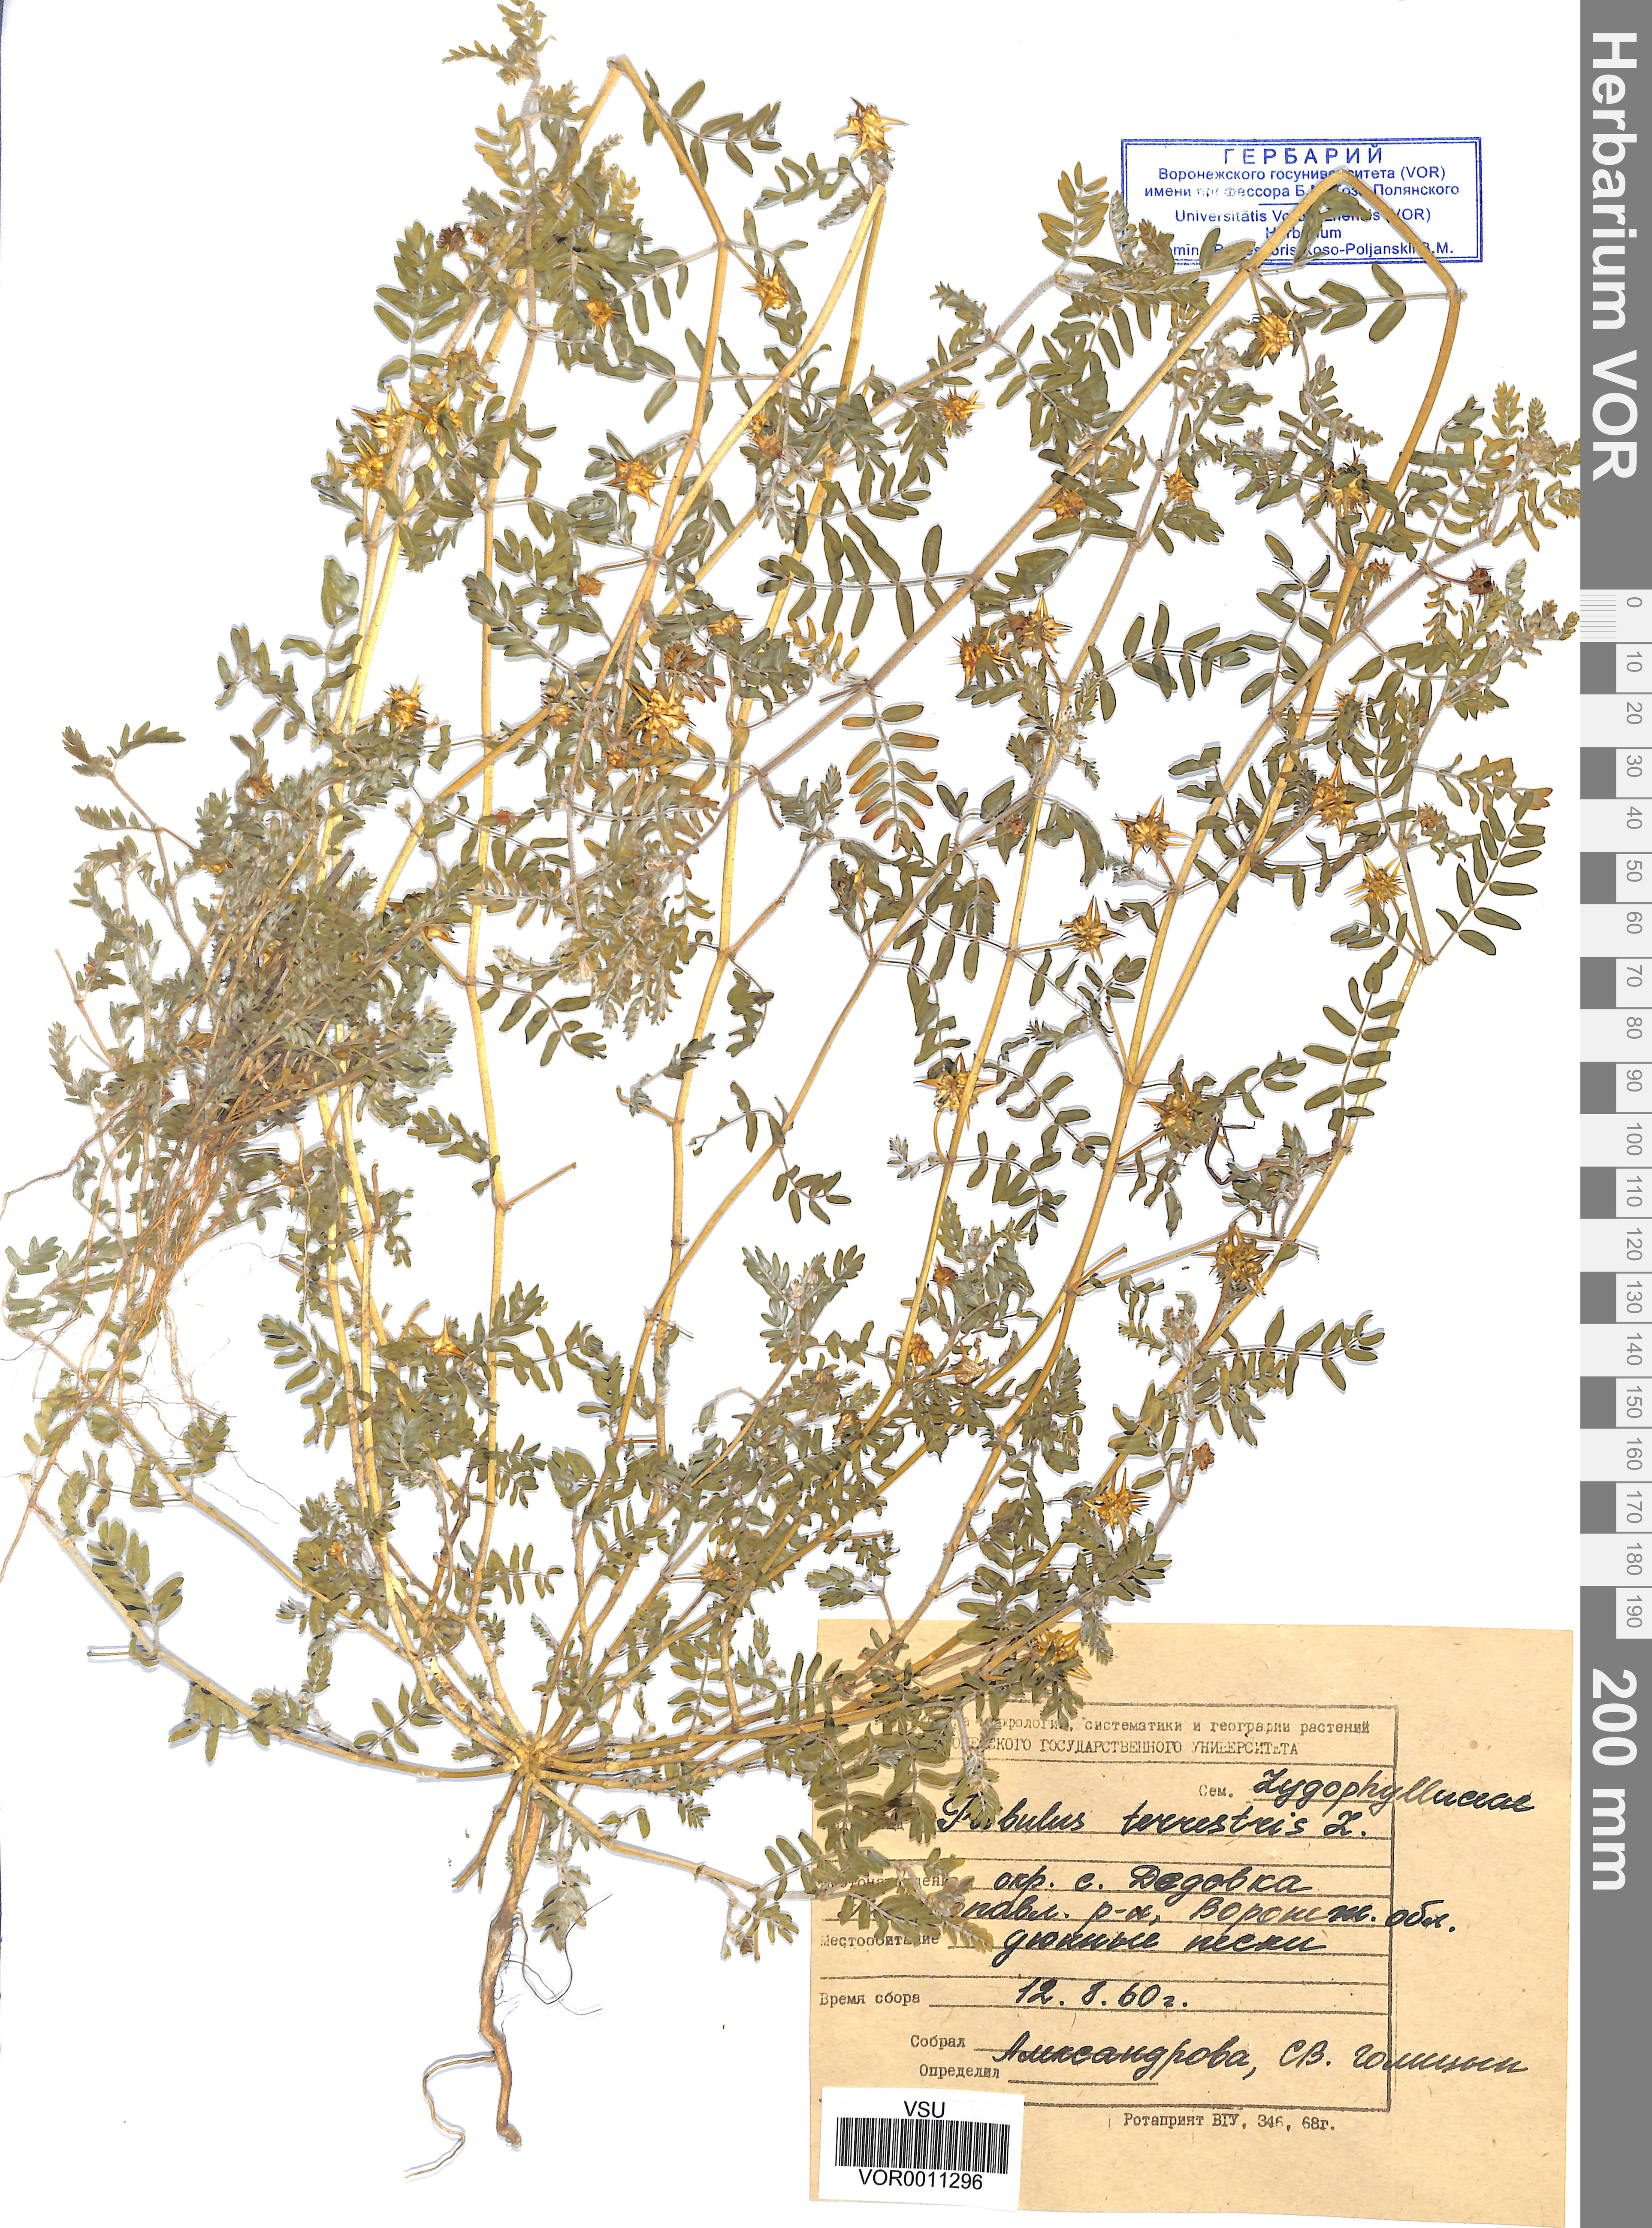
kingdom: Plantae
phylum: Tracheophyta
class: Magnoliopsida
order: Zygophyllales
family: Zygophyllaceae
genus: Tribulus
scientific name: Tribulus terrestris
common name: Puncturevine
